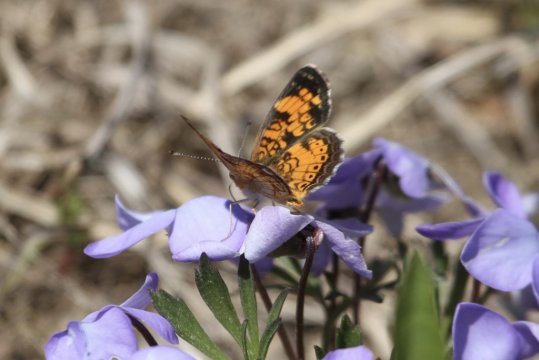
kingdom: Animalia
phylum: Arthropoda
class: Insecta
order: Lepidoptera
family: Nymphalidae
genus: Phyciodes
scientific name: Phyciodes tharos
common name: Pearl Crescent
